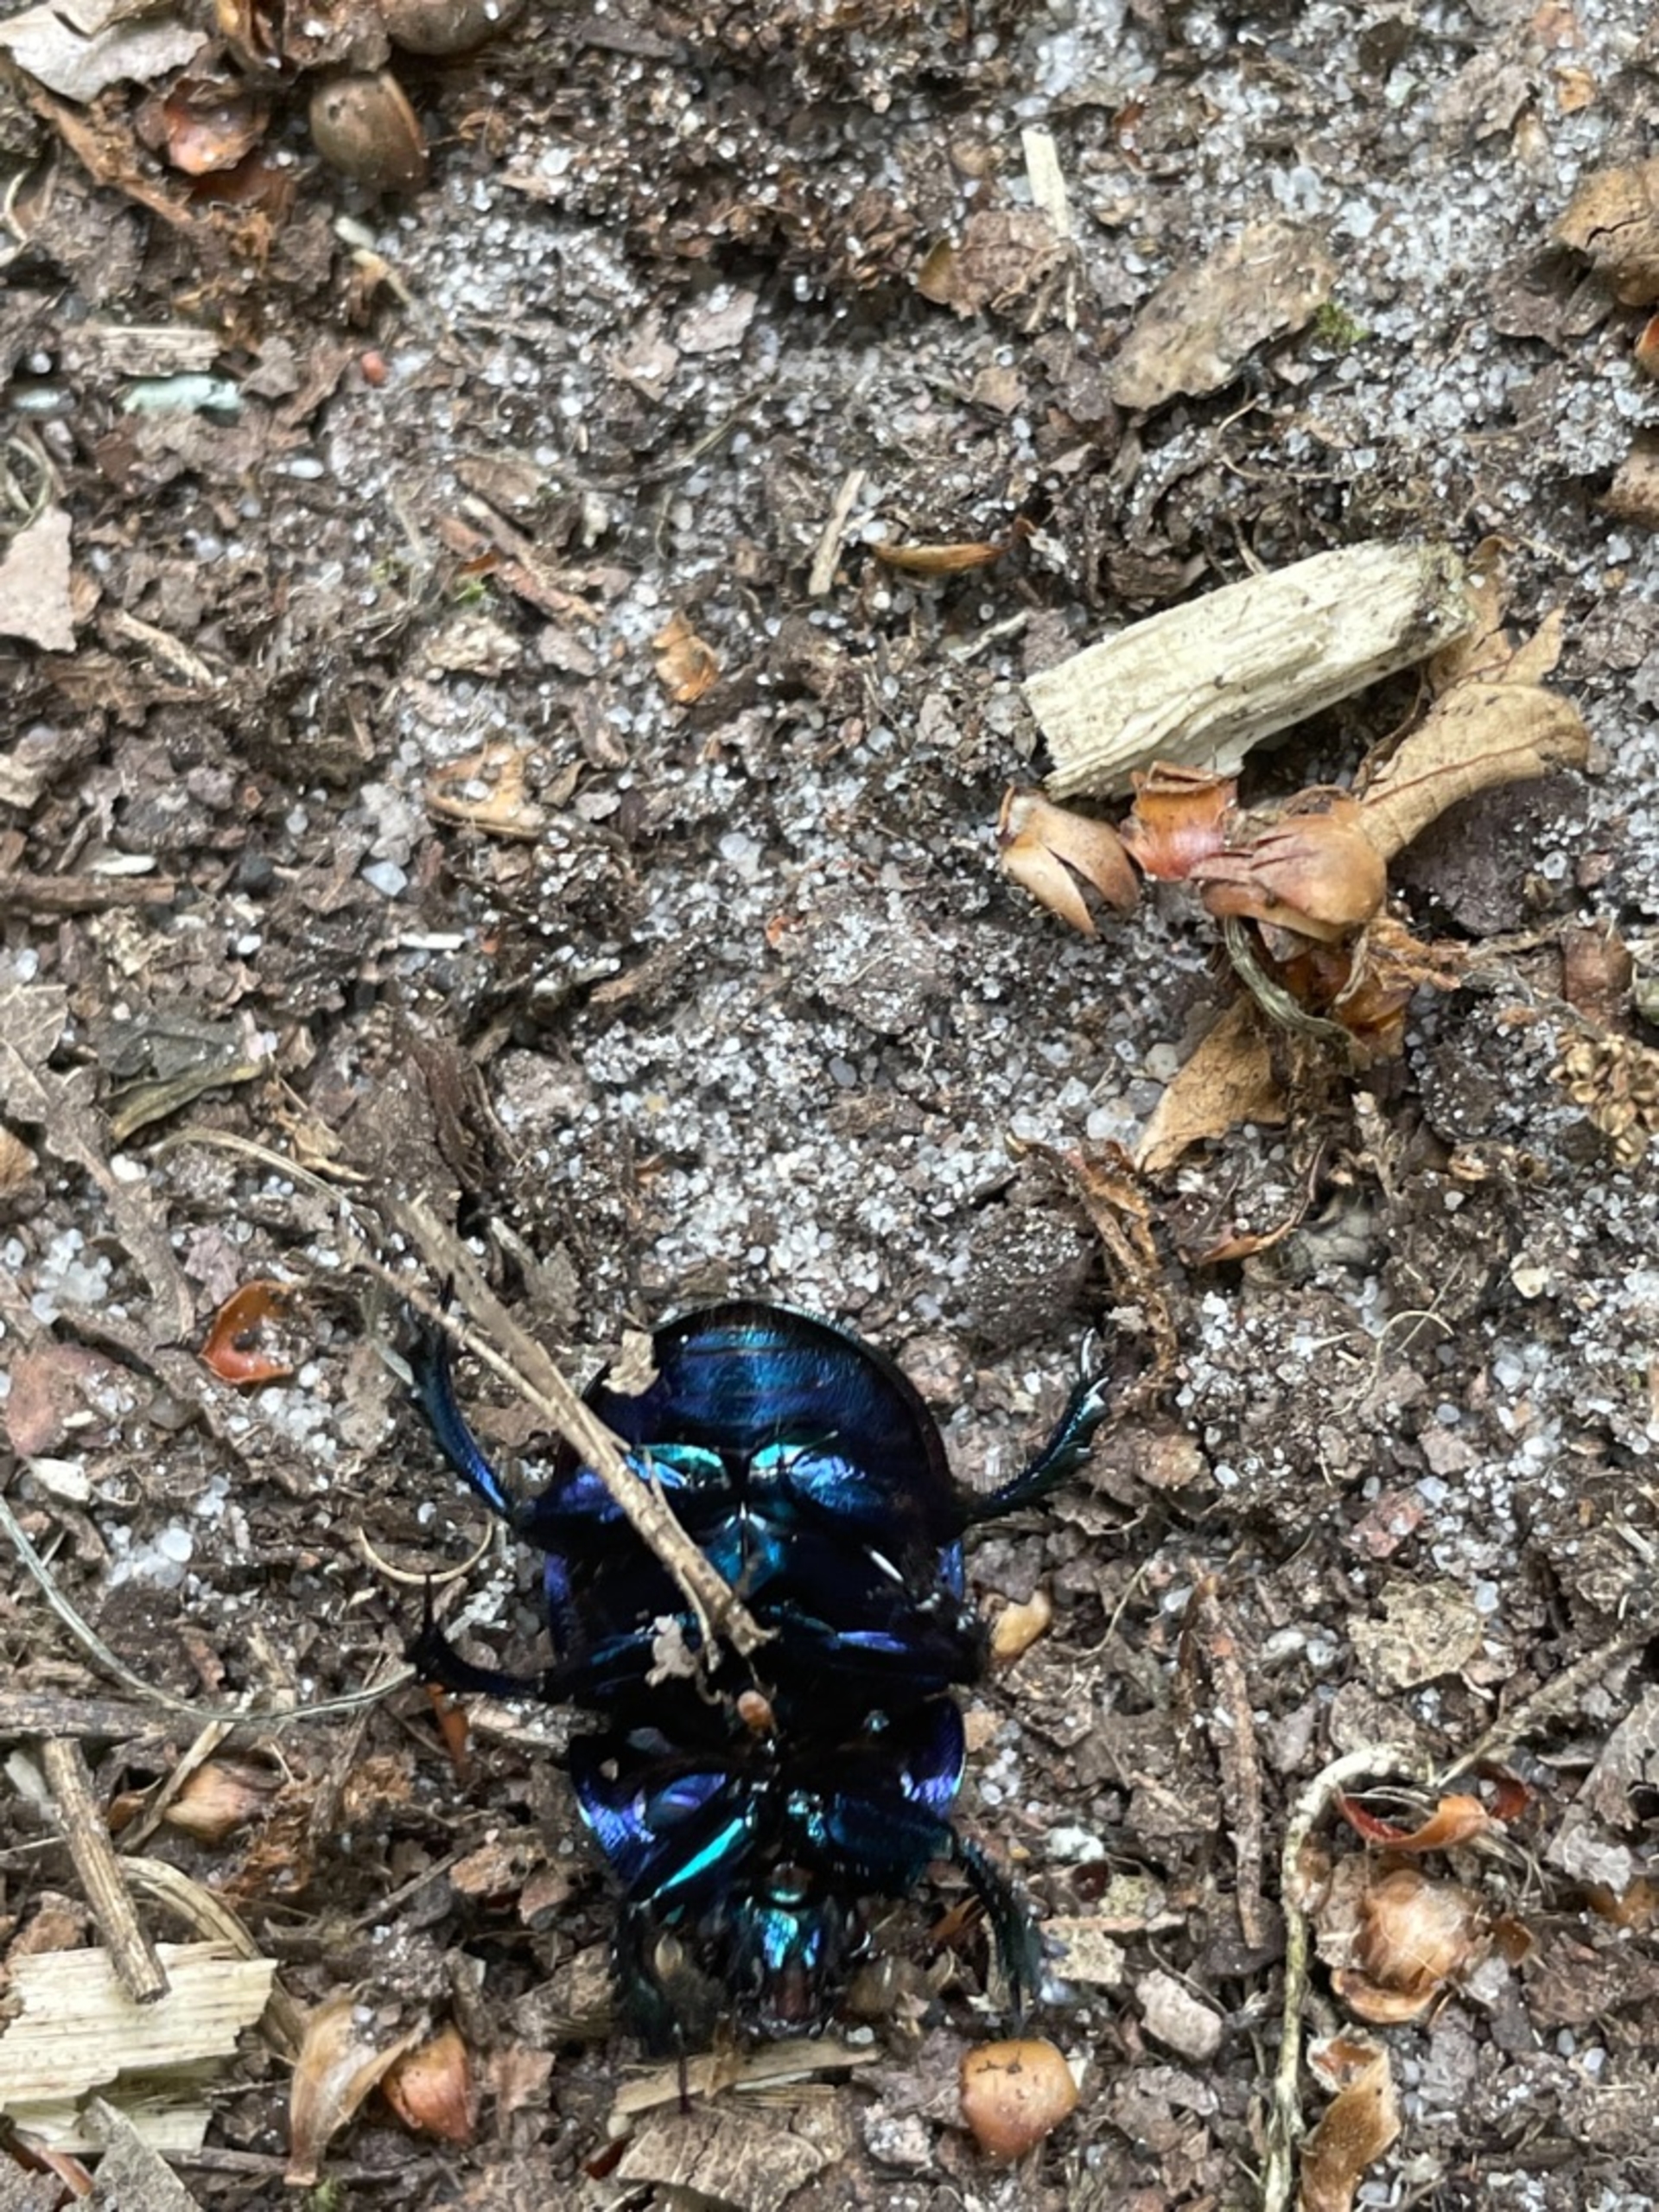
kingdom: Animalia
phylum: Arthropoda
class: Insecta
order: Coleoptera
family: Geotrupidae
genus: Anoplotrupes
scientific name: Anoplotrupes stercorosus
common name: Skovskarnbasse
